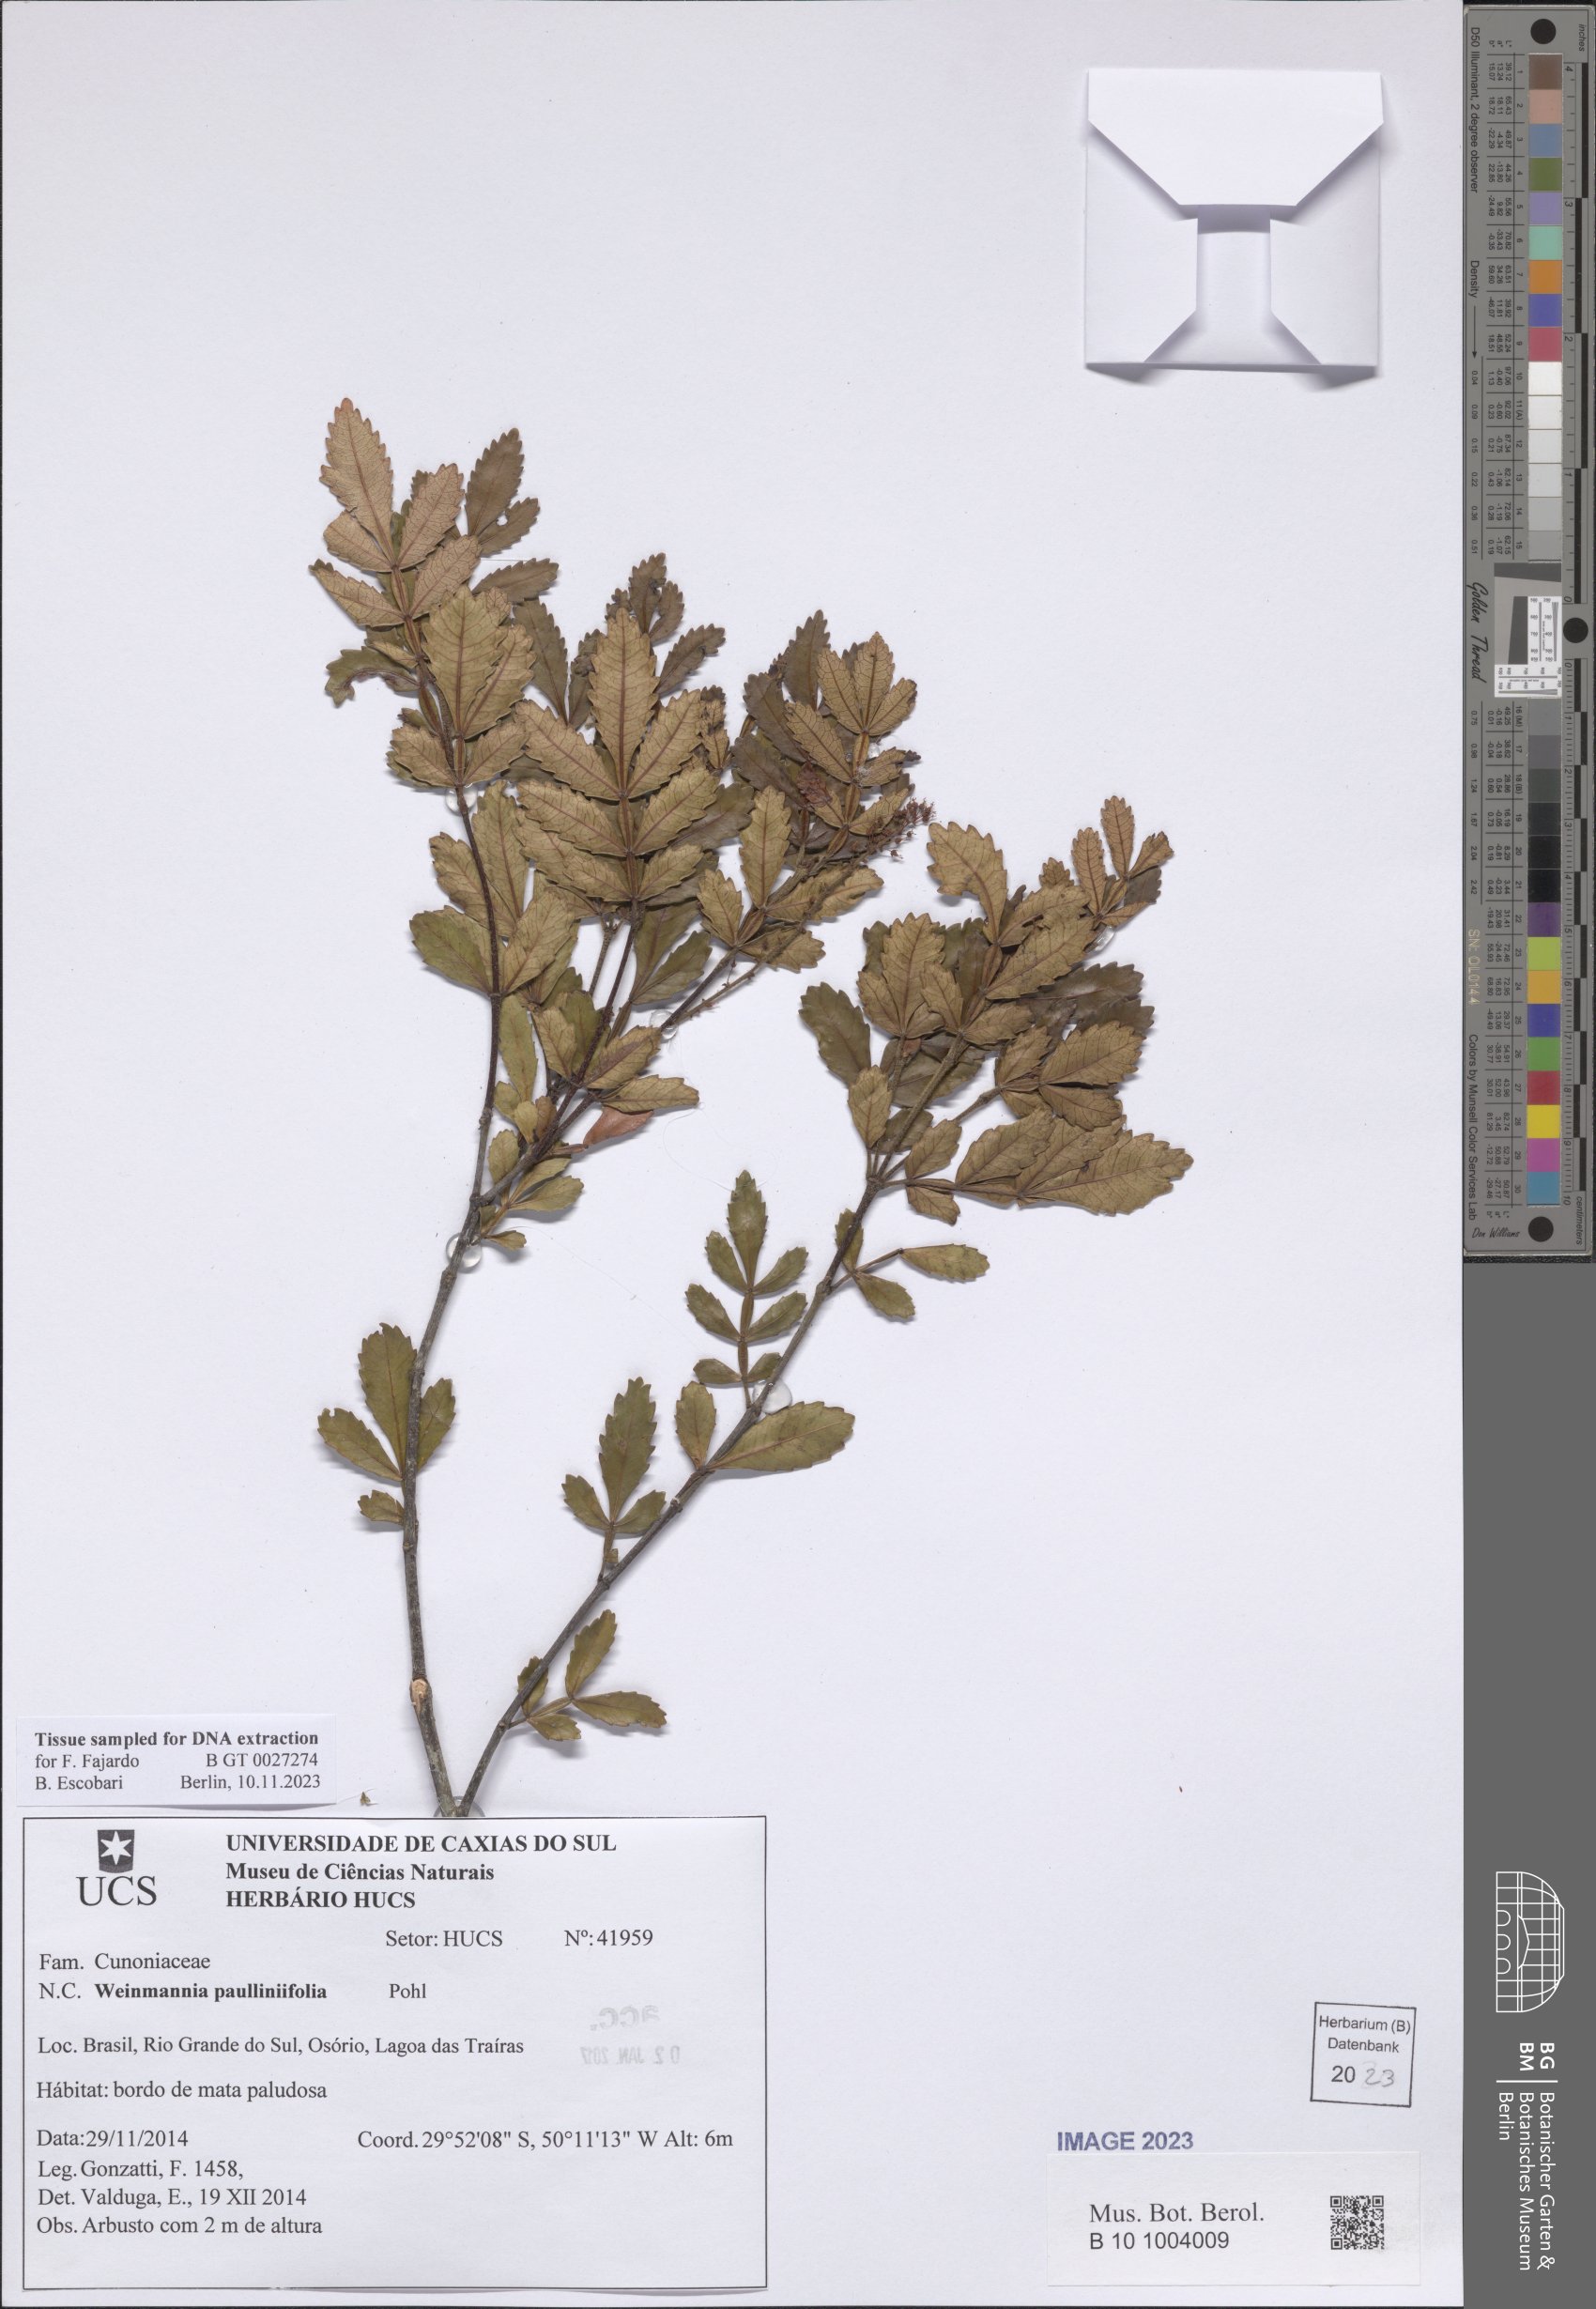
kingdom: Plantae
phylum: Tracheophyta
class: Magnoliopsida
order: Oxalidales
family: Cunoniaceae
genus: Weinmannia
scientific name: Weinmannia paullinifolia
